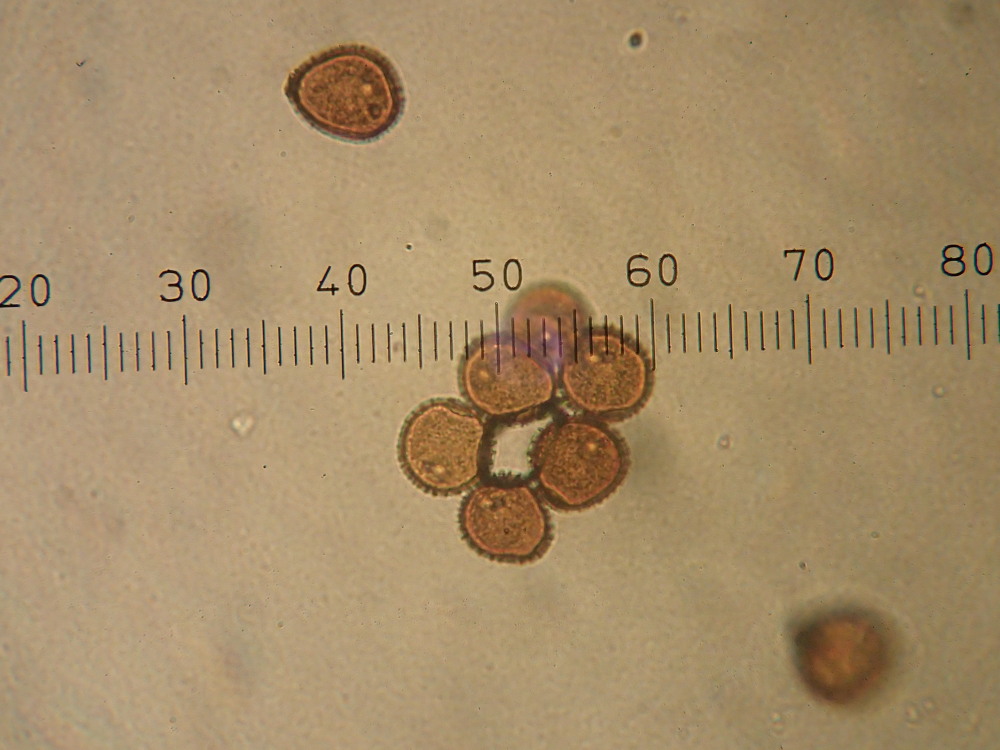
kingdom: Fungi
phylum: Basidiomycota
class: Pucciniomycetes
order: Pucciniales
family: Pucciniaceae
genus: Puccinia
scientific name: Puccinia hieracii
